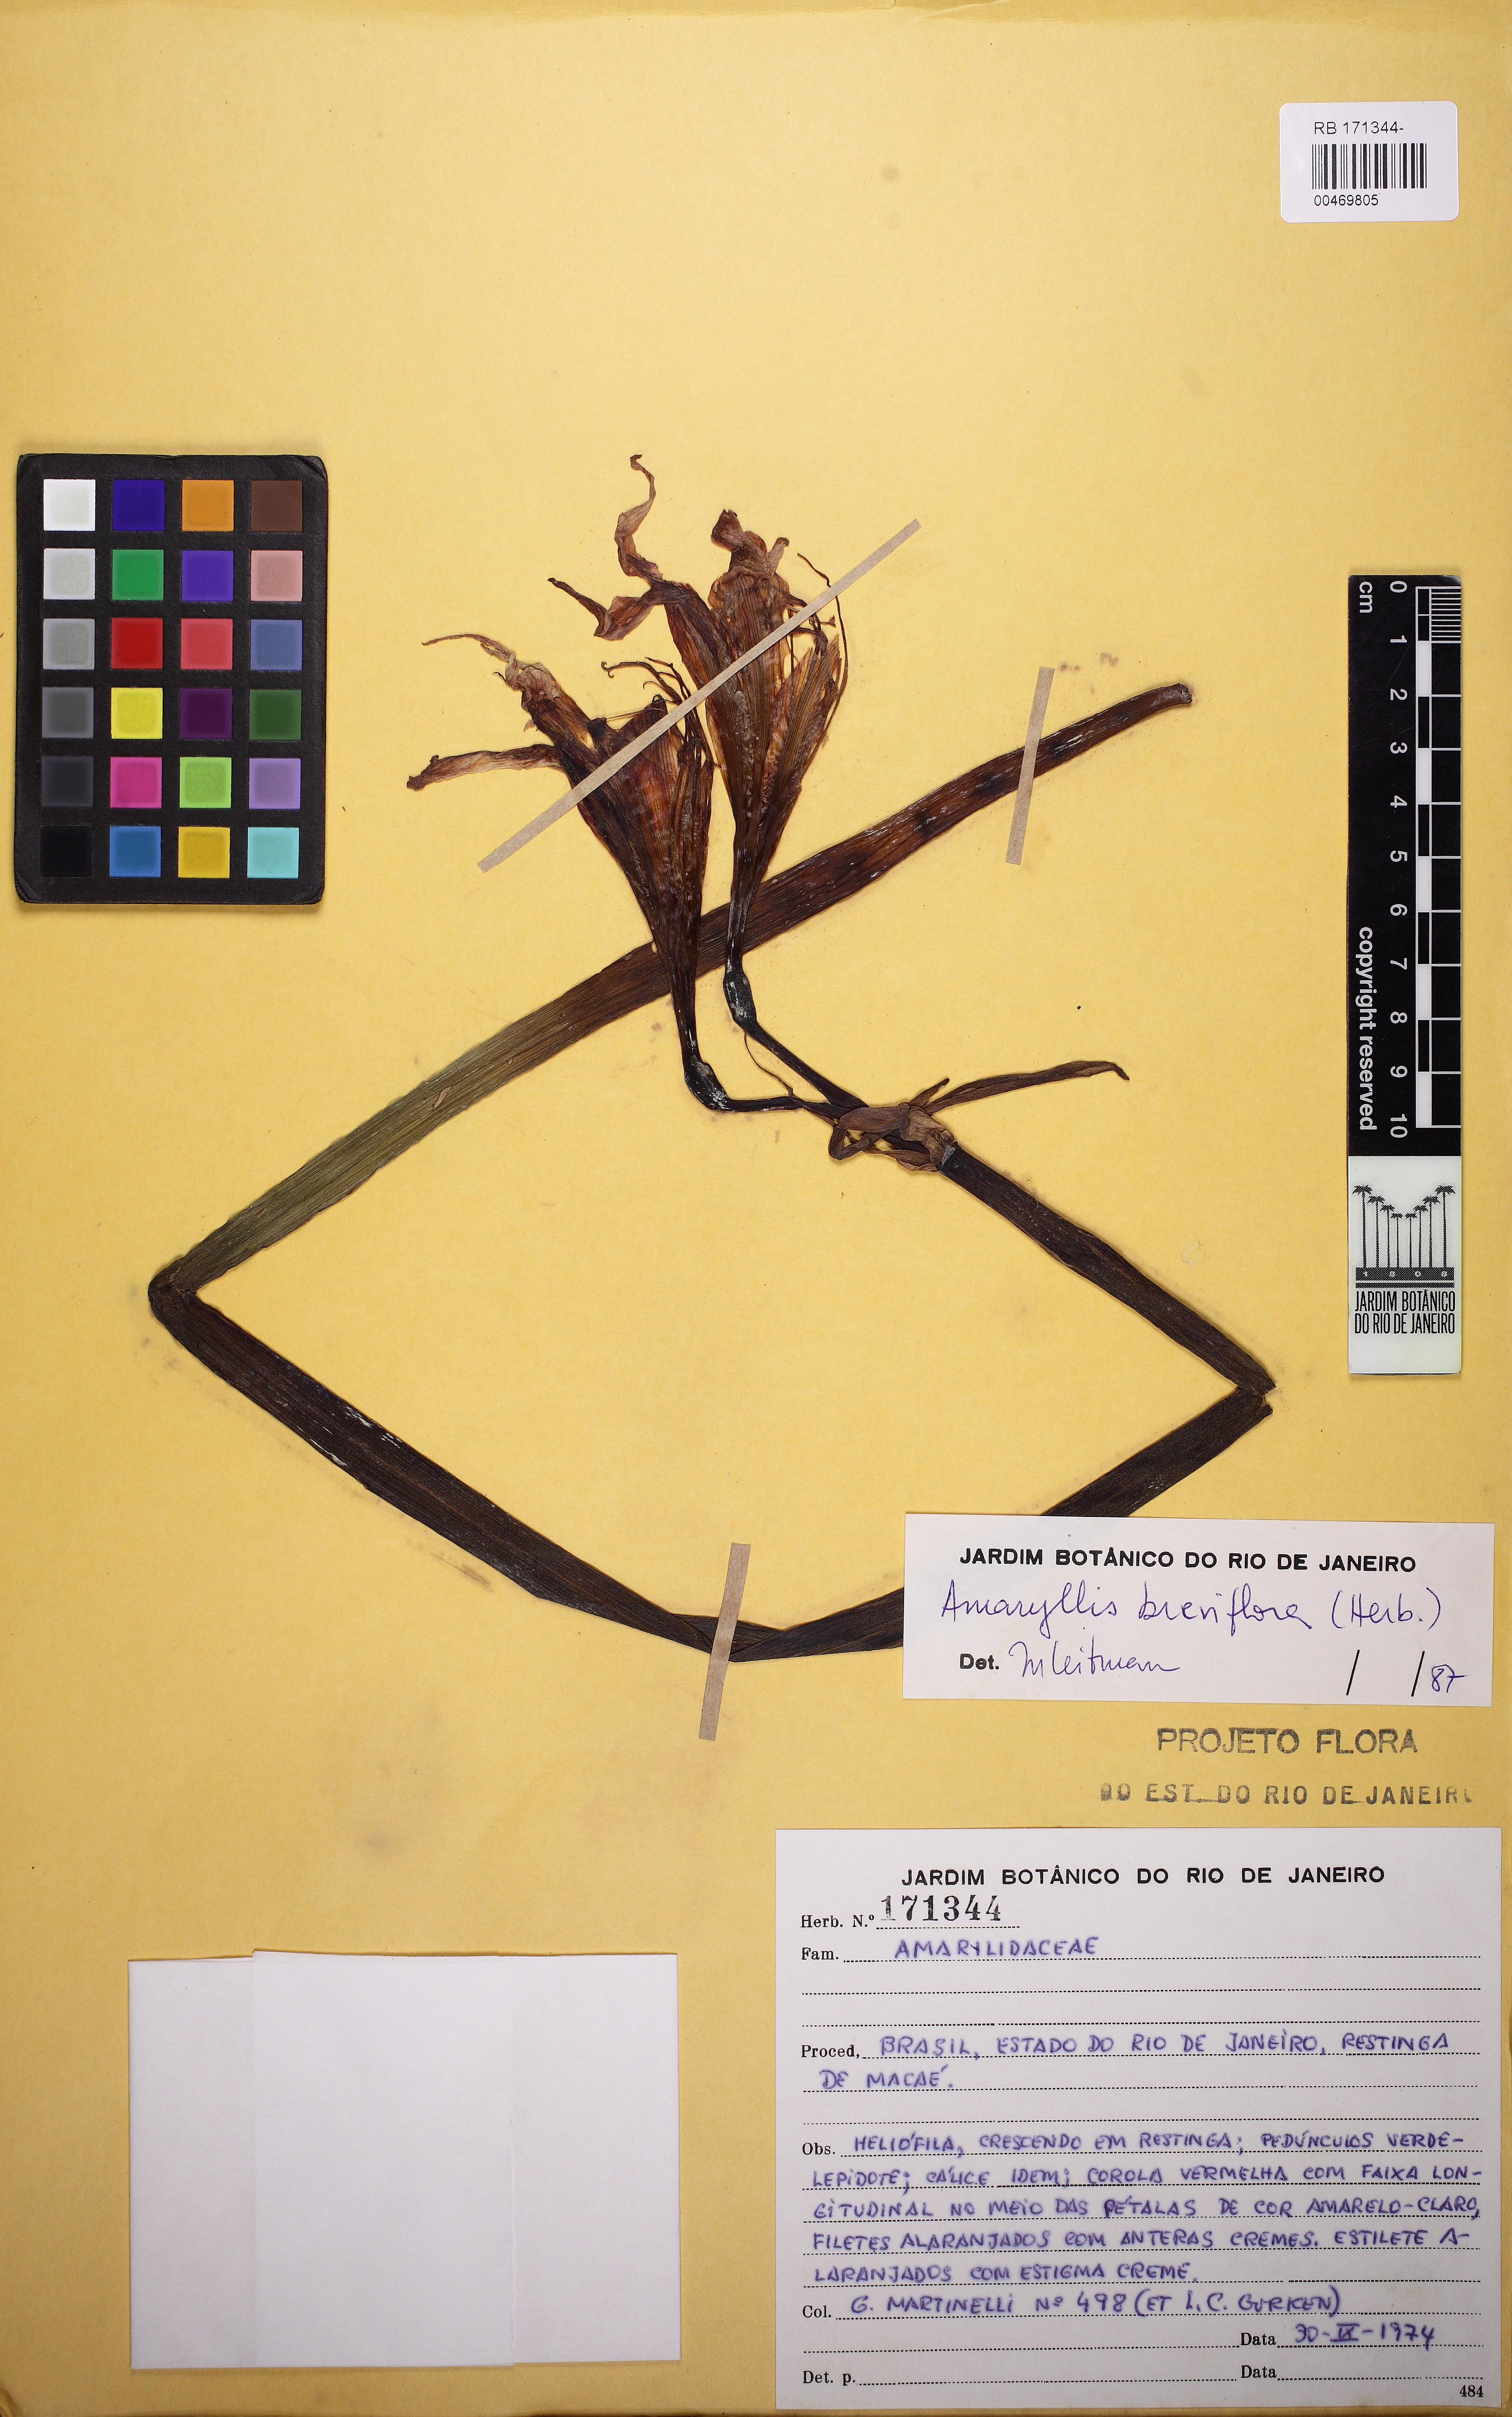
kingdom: Plantae
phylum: Tracheophyta
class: Liliopsida
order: Asparagales
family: Amaryllidaceae
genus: Hippeastrum
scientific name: Hippeastrum striatum
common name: Striped barbados lily
